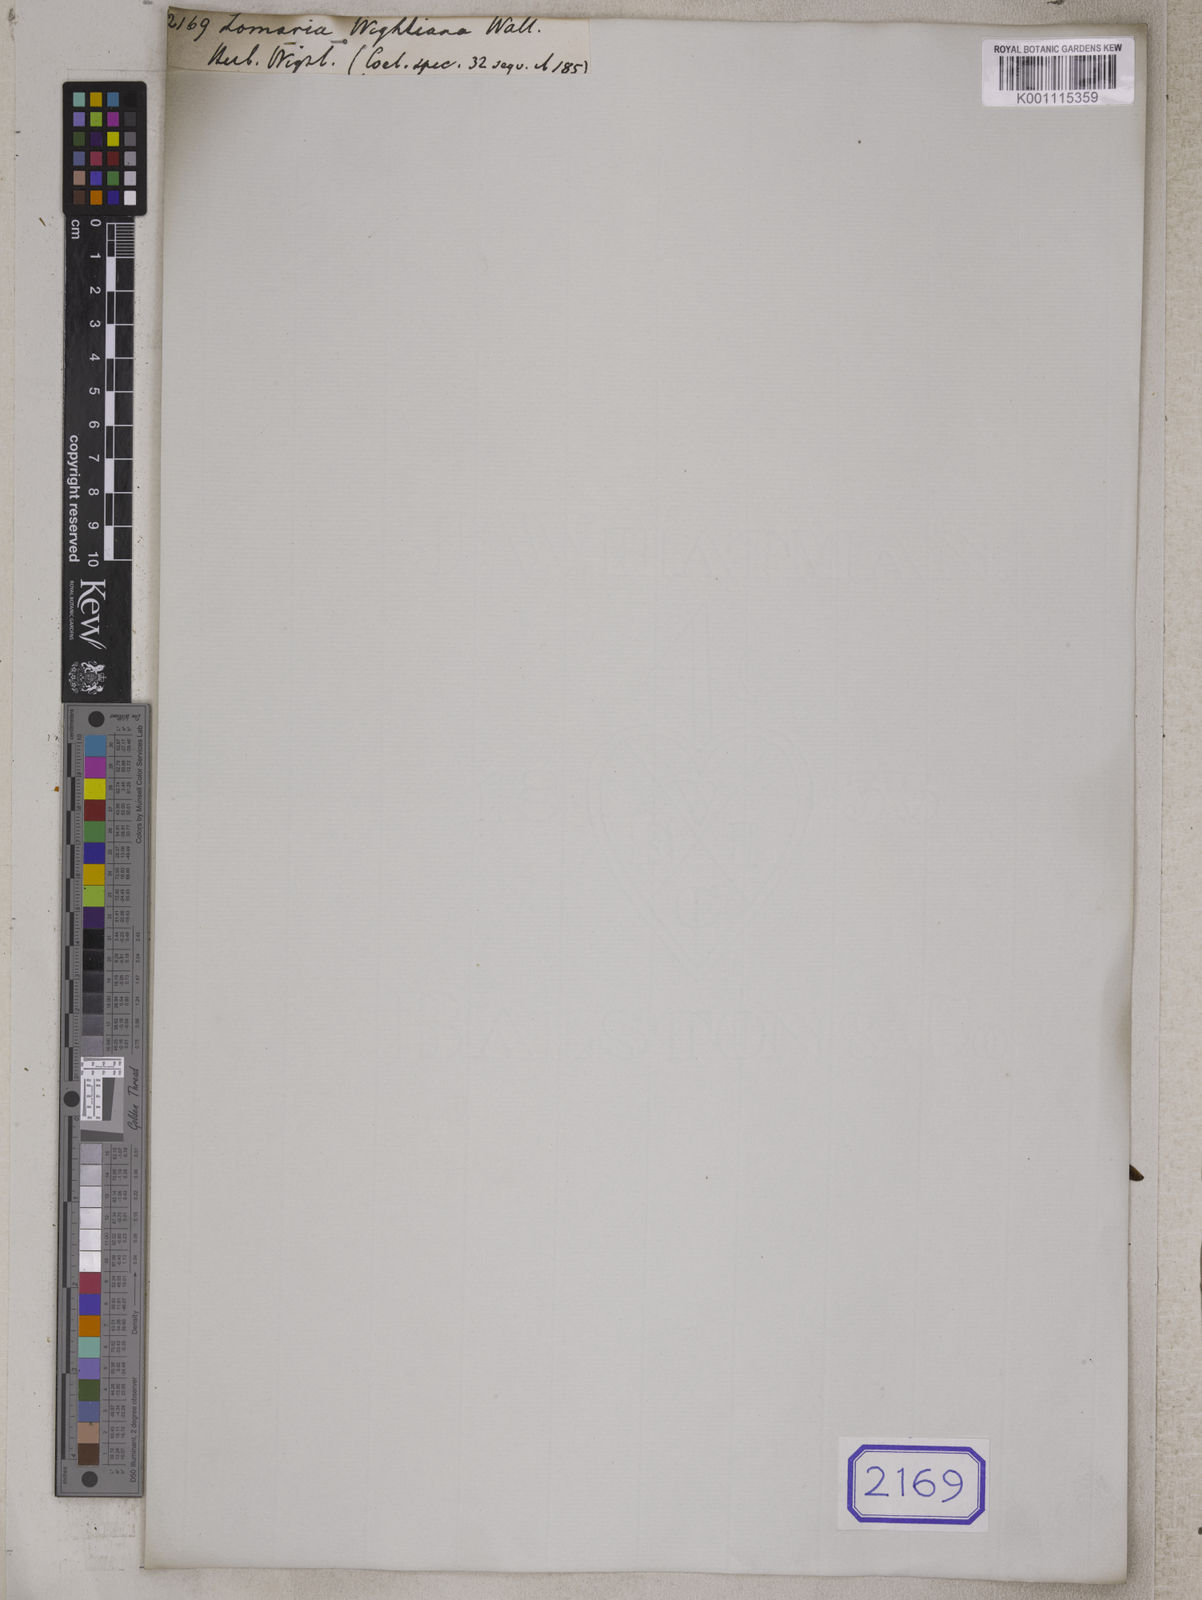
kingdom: Plantae
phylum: Tracheophyta
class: Polypodiopsida
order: Polypodiales
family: Blechnaceae
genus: Blechnum
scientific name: Blechnum Lomaria wightiana
